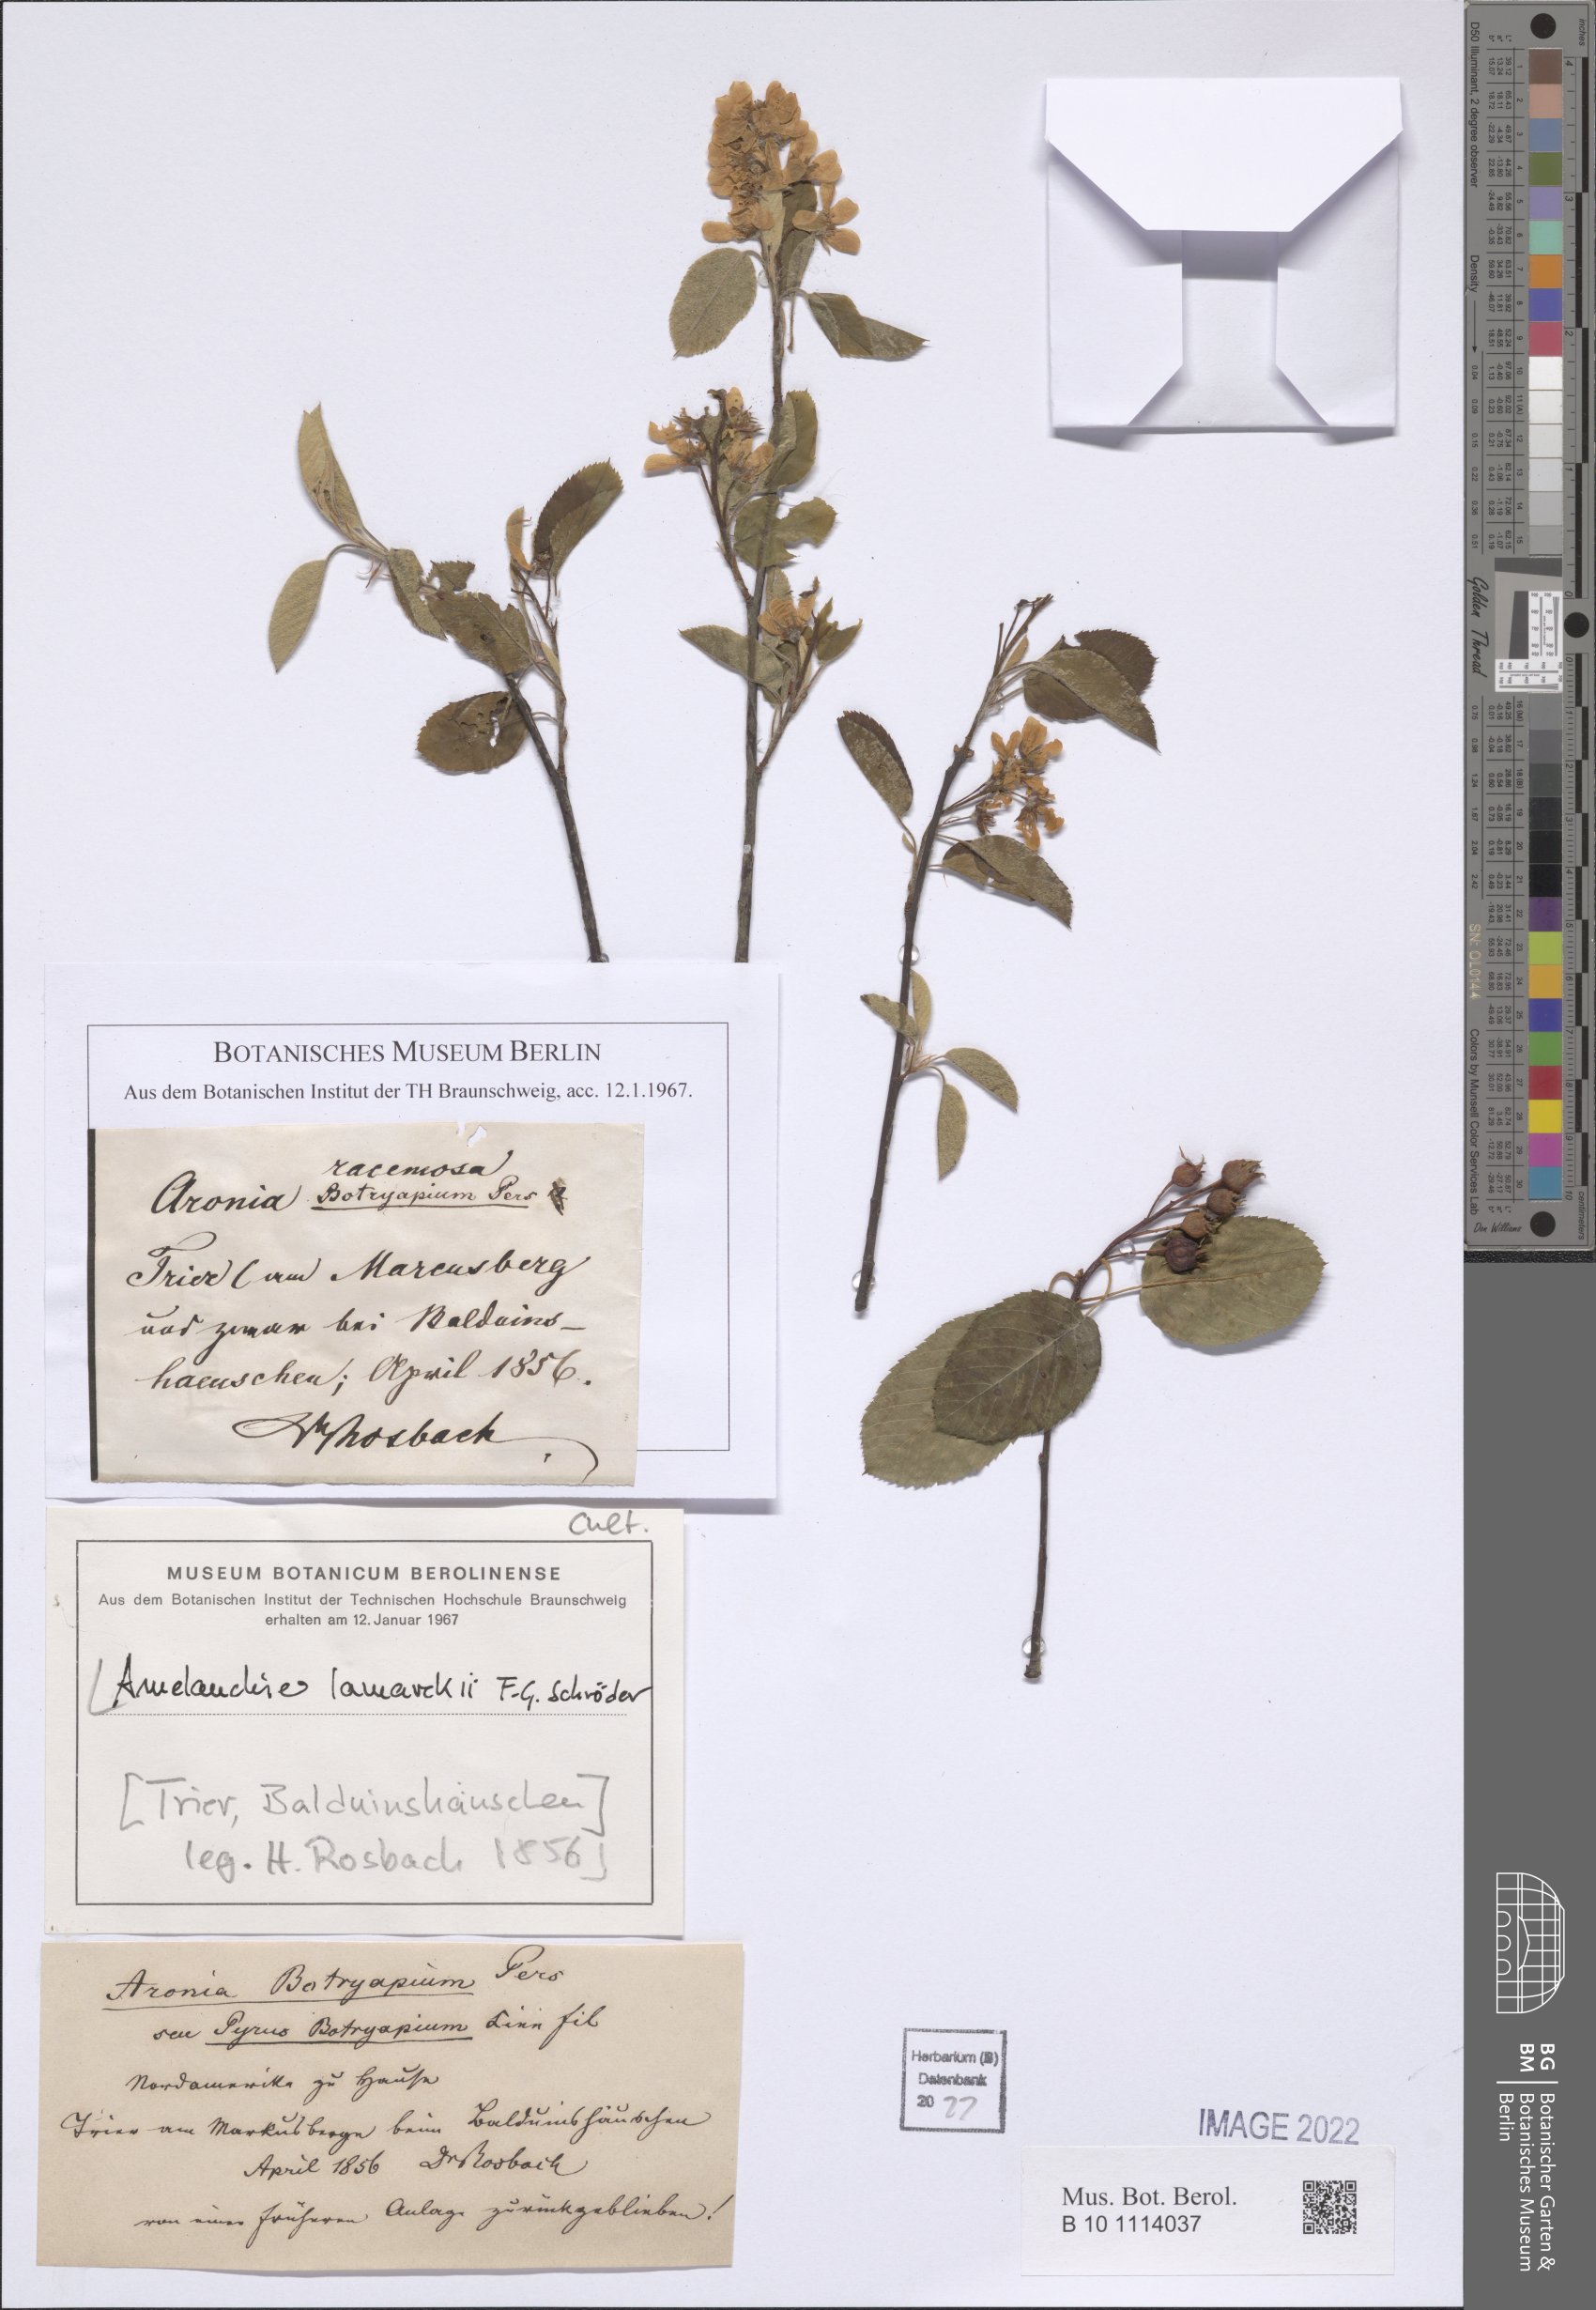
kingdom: Plantae
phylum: Tracheophyta
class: Magnoliopsida
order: Rosales
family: Rosaceae
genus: Amelanchier
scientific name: Amelanchier lamarckii
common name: Juneberry
